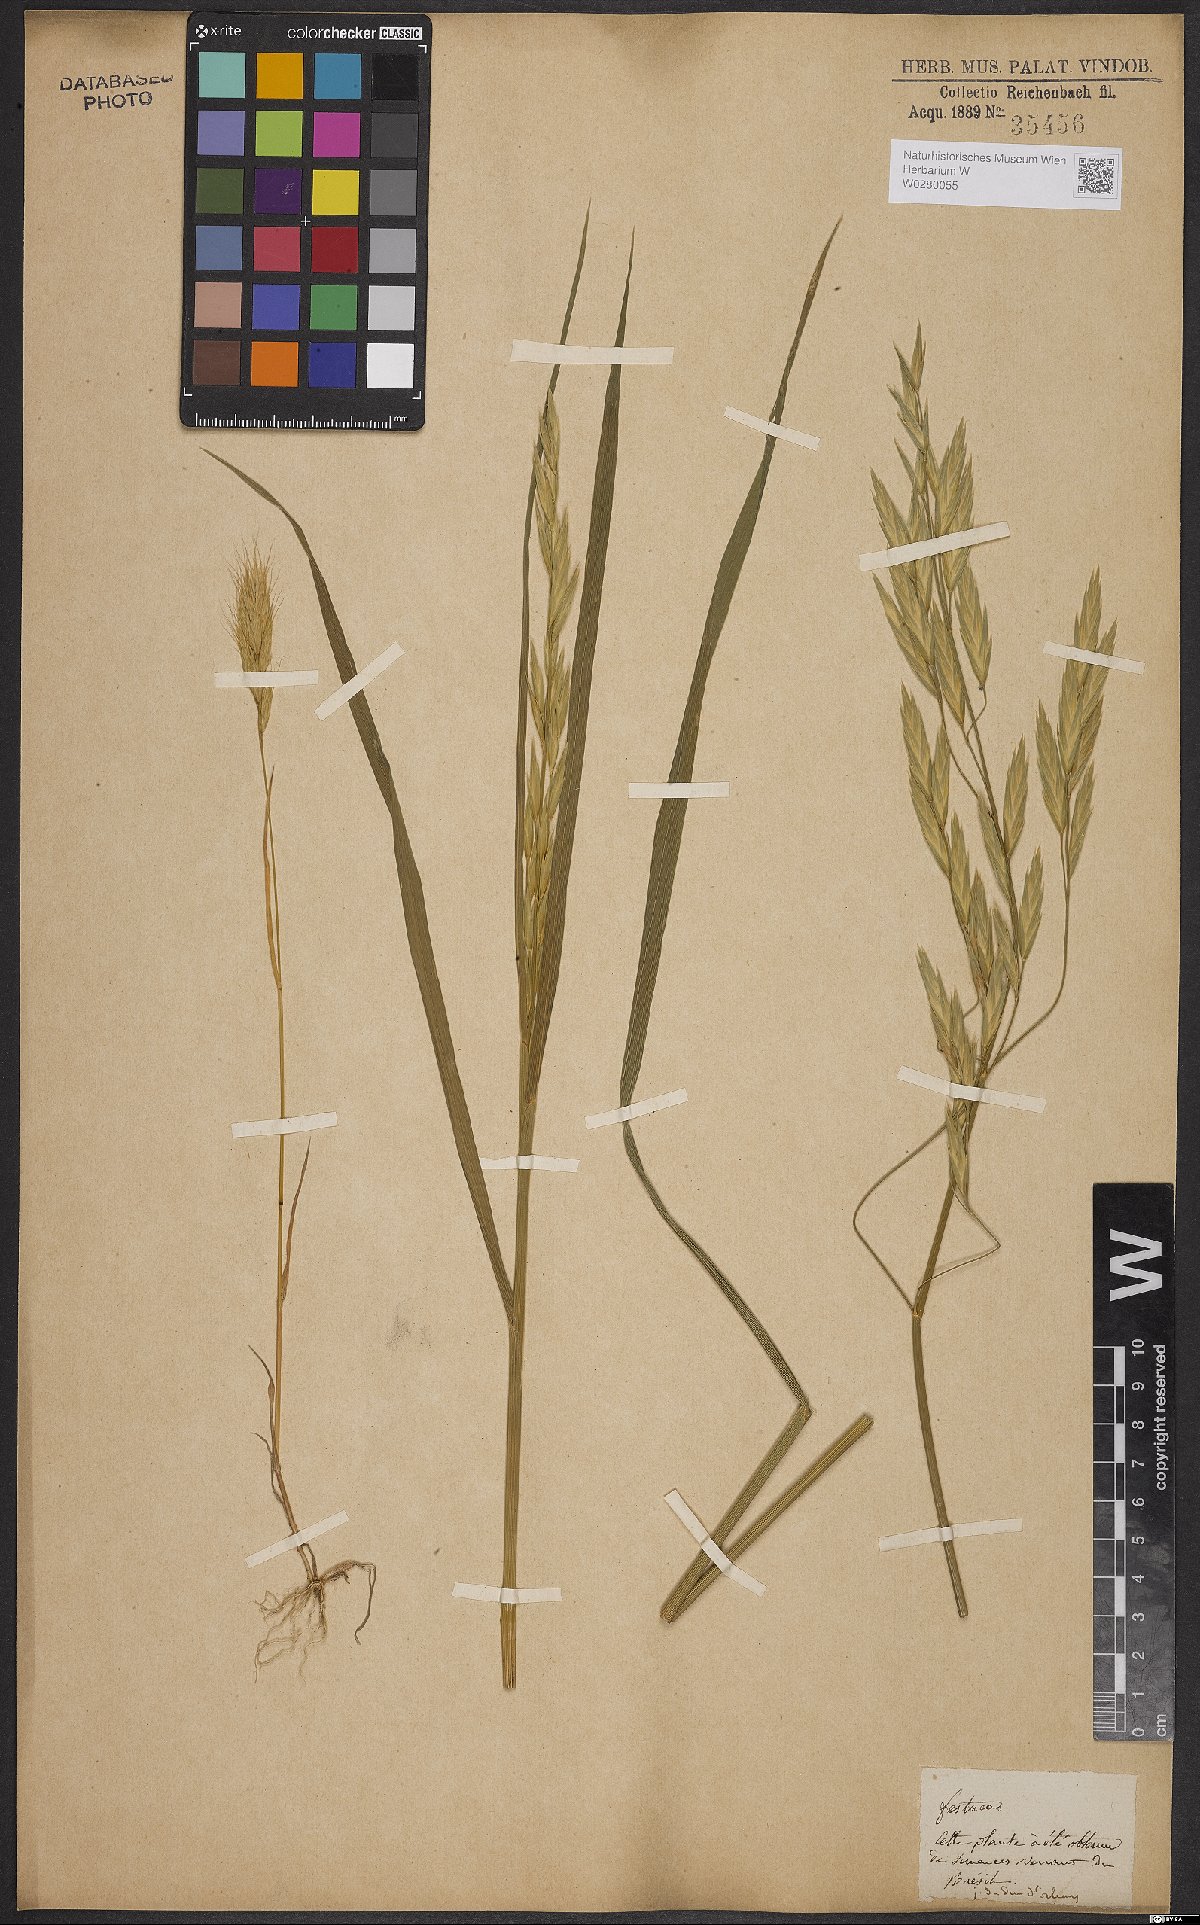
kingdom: Plantae
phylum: Tracheophyta
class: Liliopsida
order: Poales
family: Poaceae
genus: Bromus
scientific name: Bromus catharticus
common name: Rescuegrass
